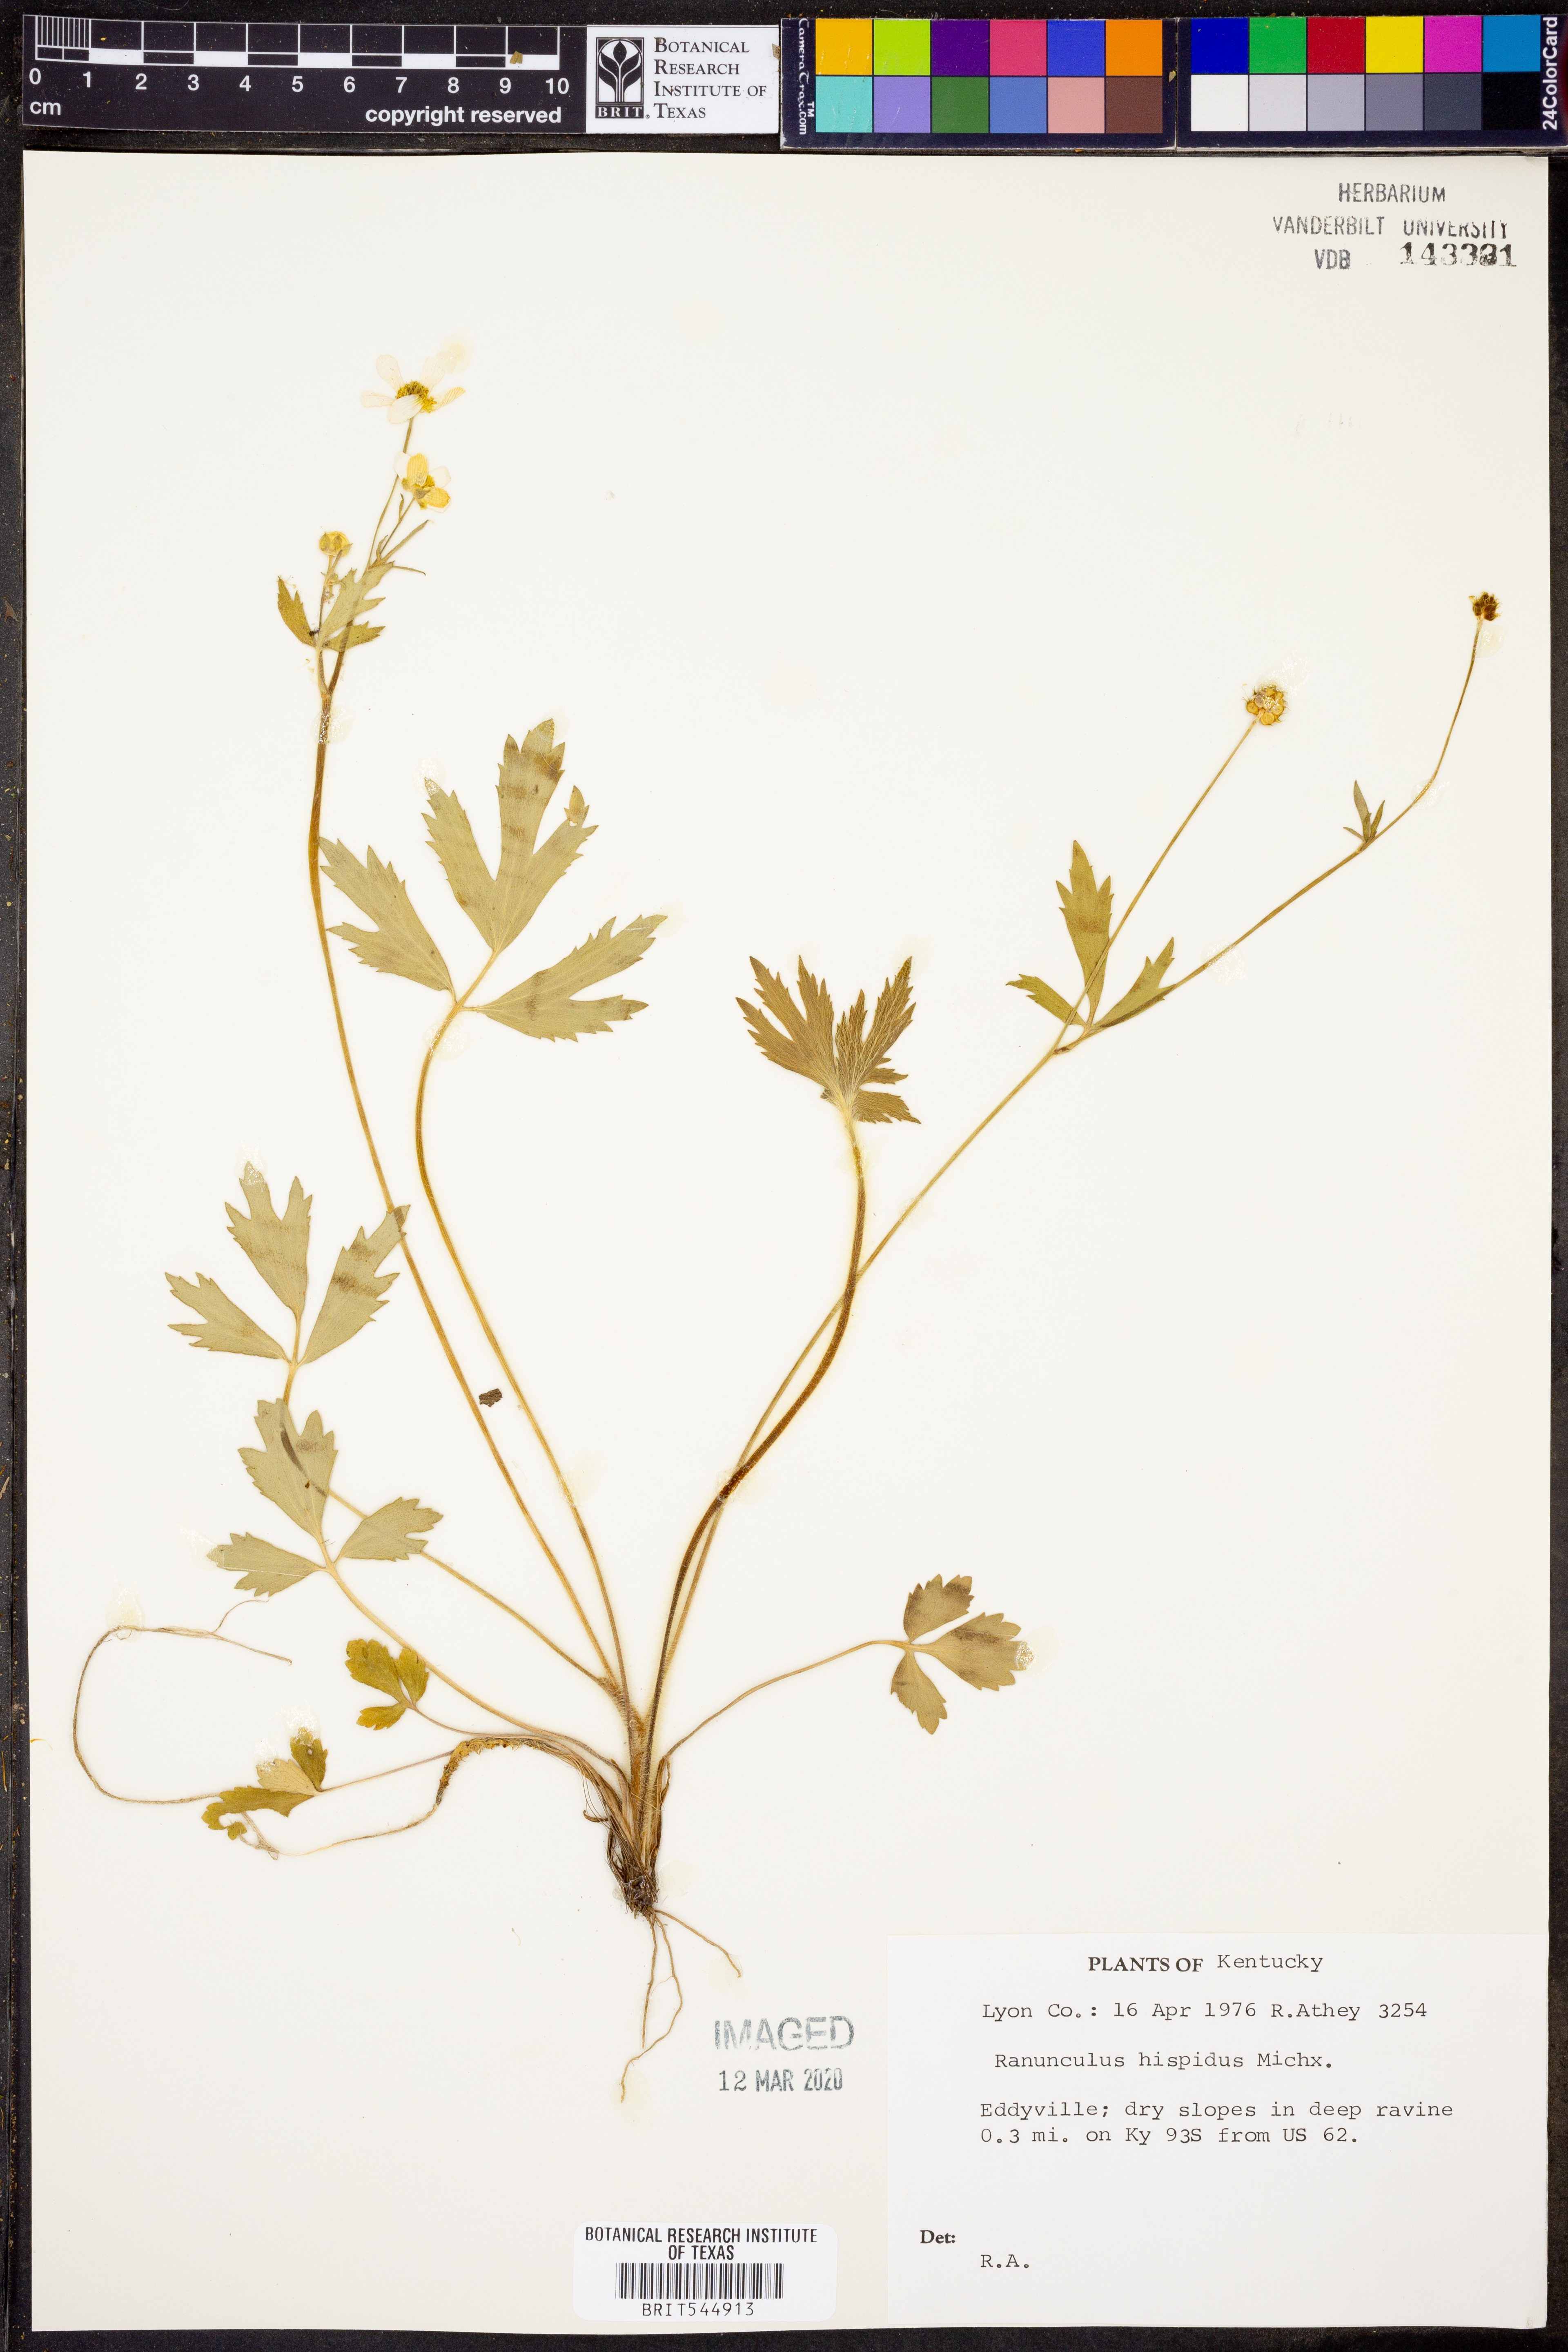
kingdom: Plantae
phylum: Tracheophyta
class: Magnoliopsida
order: Ranunculales
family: Ranunculaceae
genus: Ranunculus
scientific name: Ranunculus hispidus
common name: Bristly buttercup
